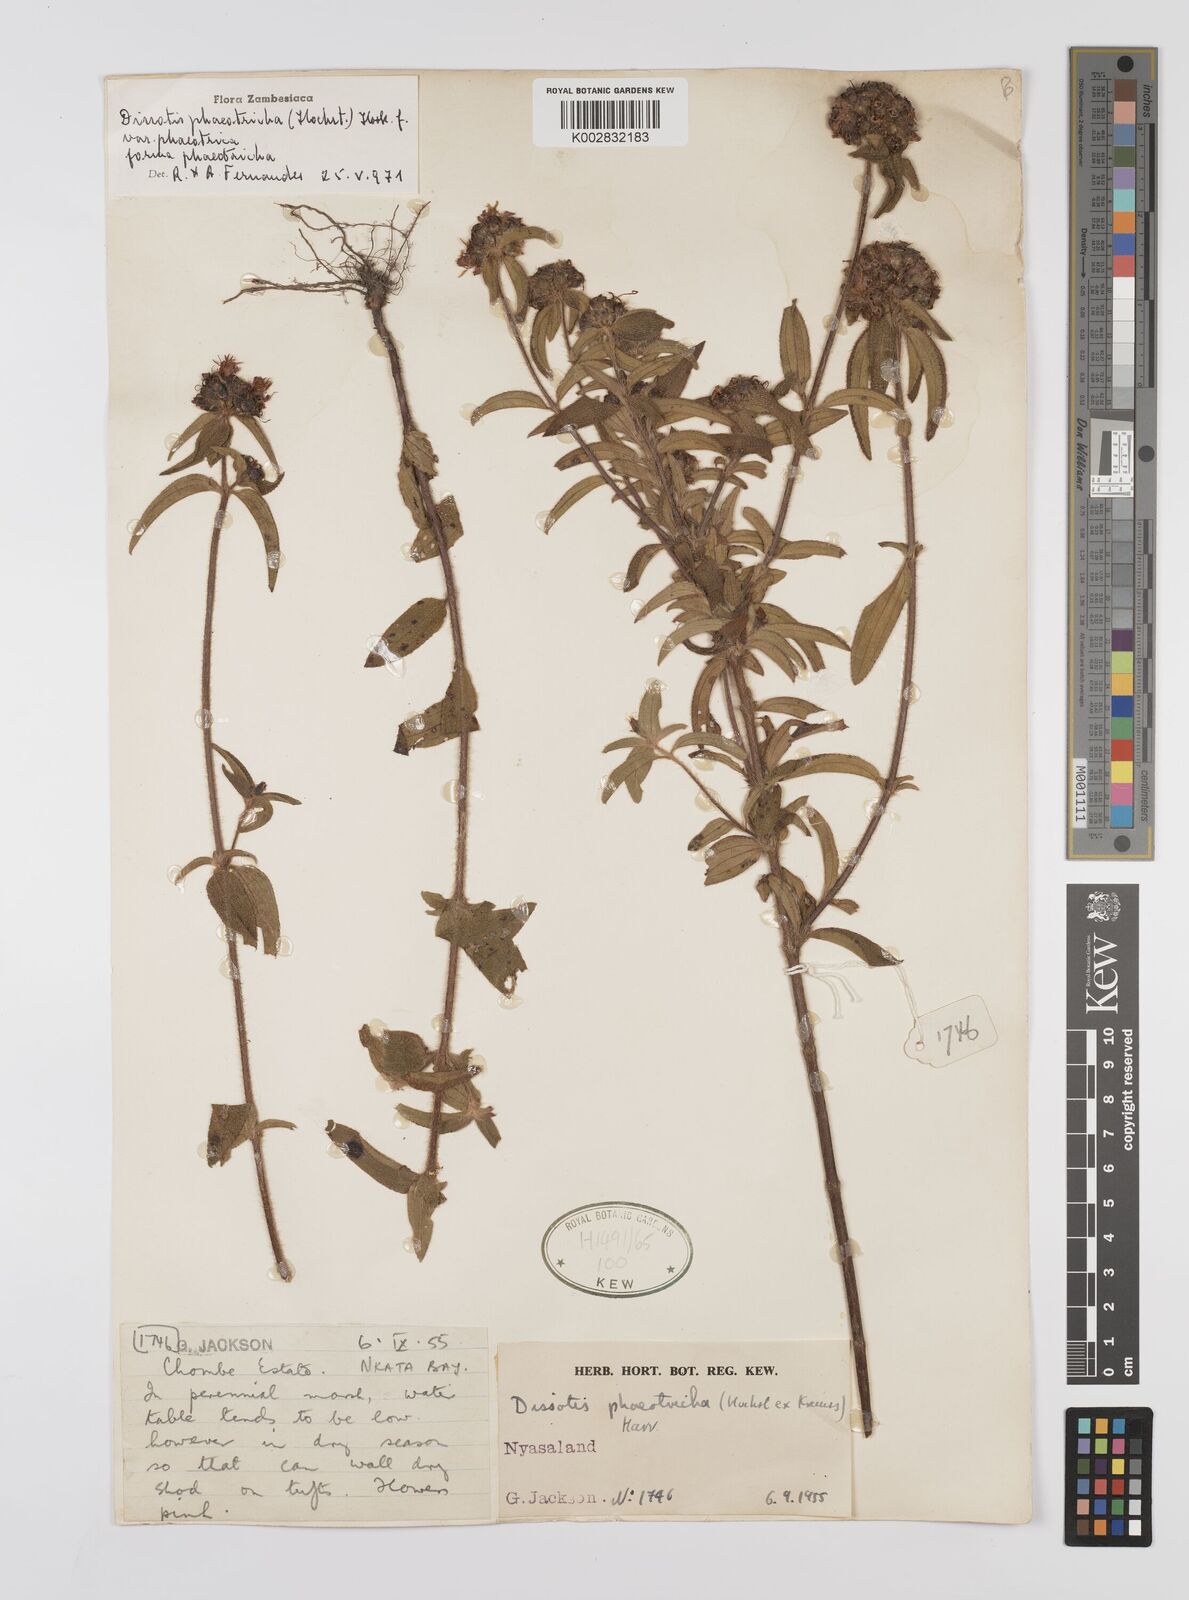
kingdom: Plantae
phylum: Tracheophyta
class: Magnoliopsida
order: Myrtales
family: Melastomataceae
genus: Antherotoma
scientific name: Antherotoma phaeotricha
